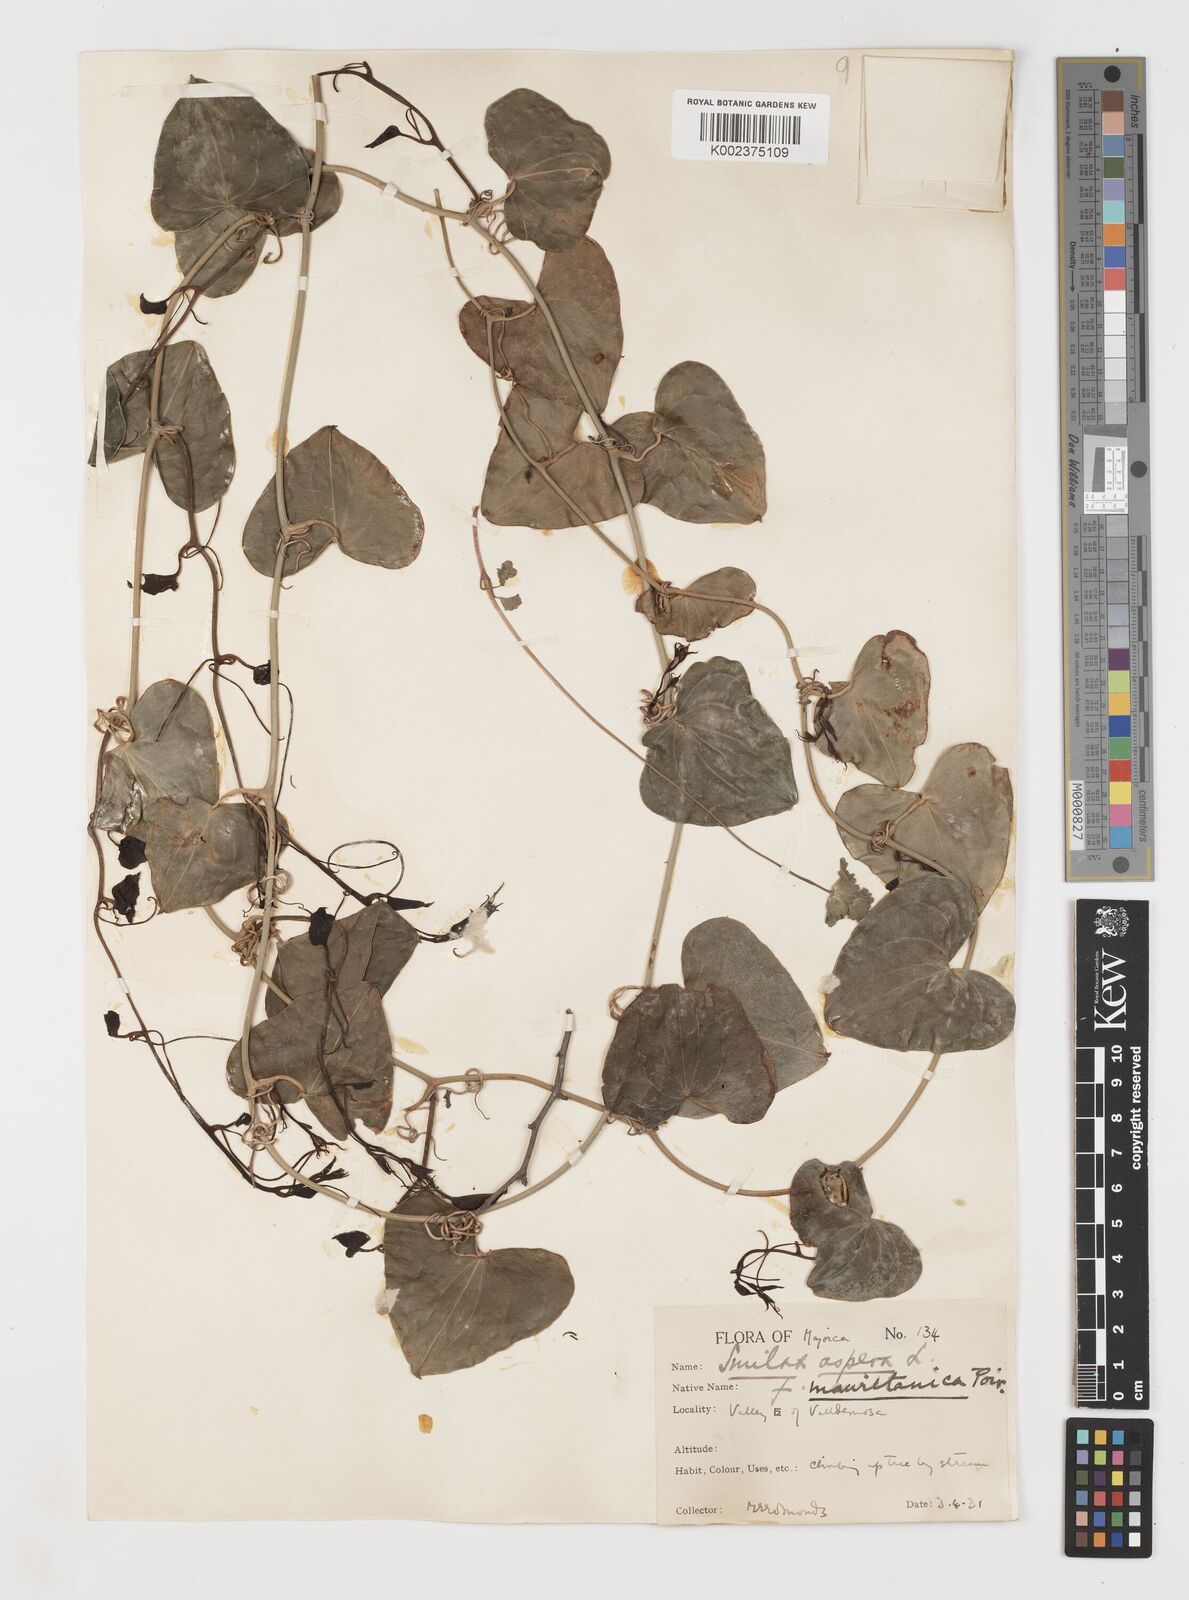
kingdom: Plantae
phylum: Tracheophyta
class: Liliopsida
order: Liliales
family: Smilacaceae
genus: Smilax
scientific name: Smilax aspera
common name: Common smilax
